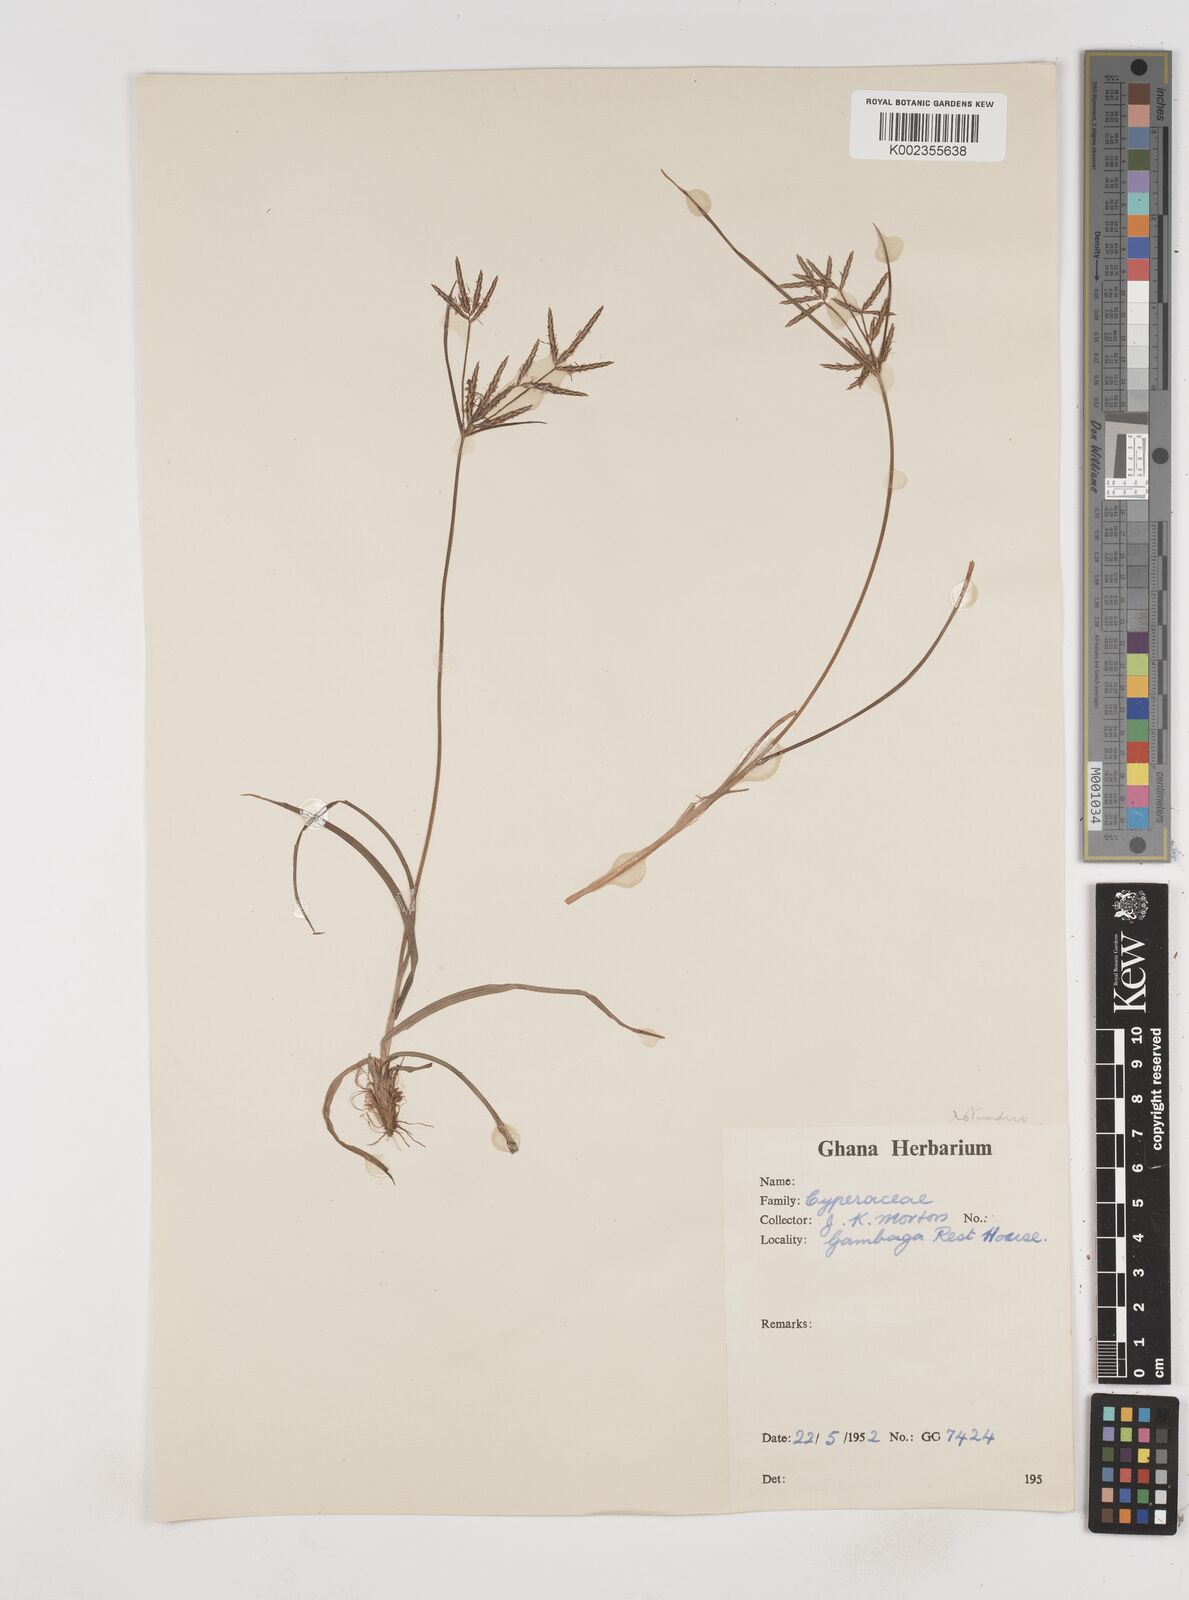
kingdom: Plantae
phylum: Tracheophyta
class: Liliopsida
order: Poales
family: Cyperaceae
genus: Cyperus
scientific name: Cyperus rotundus
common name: Nutgrass
